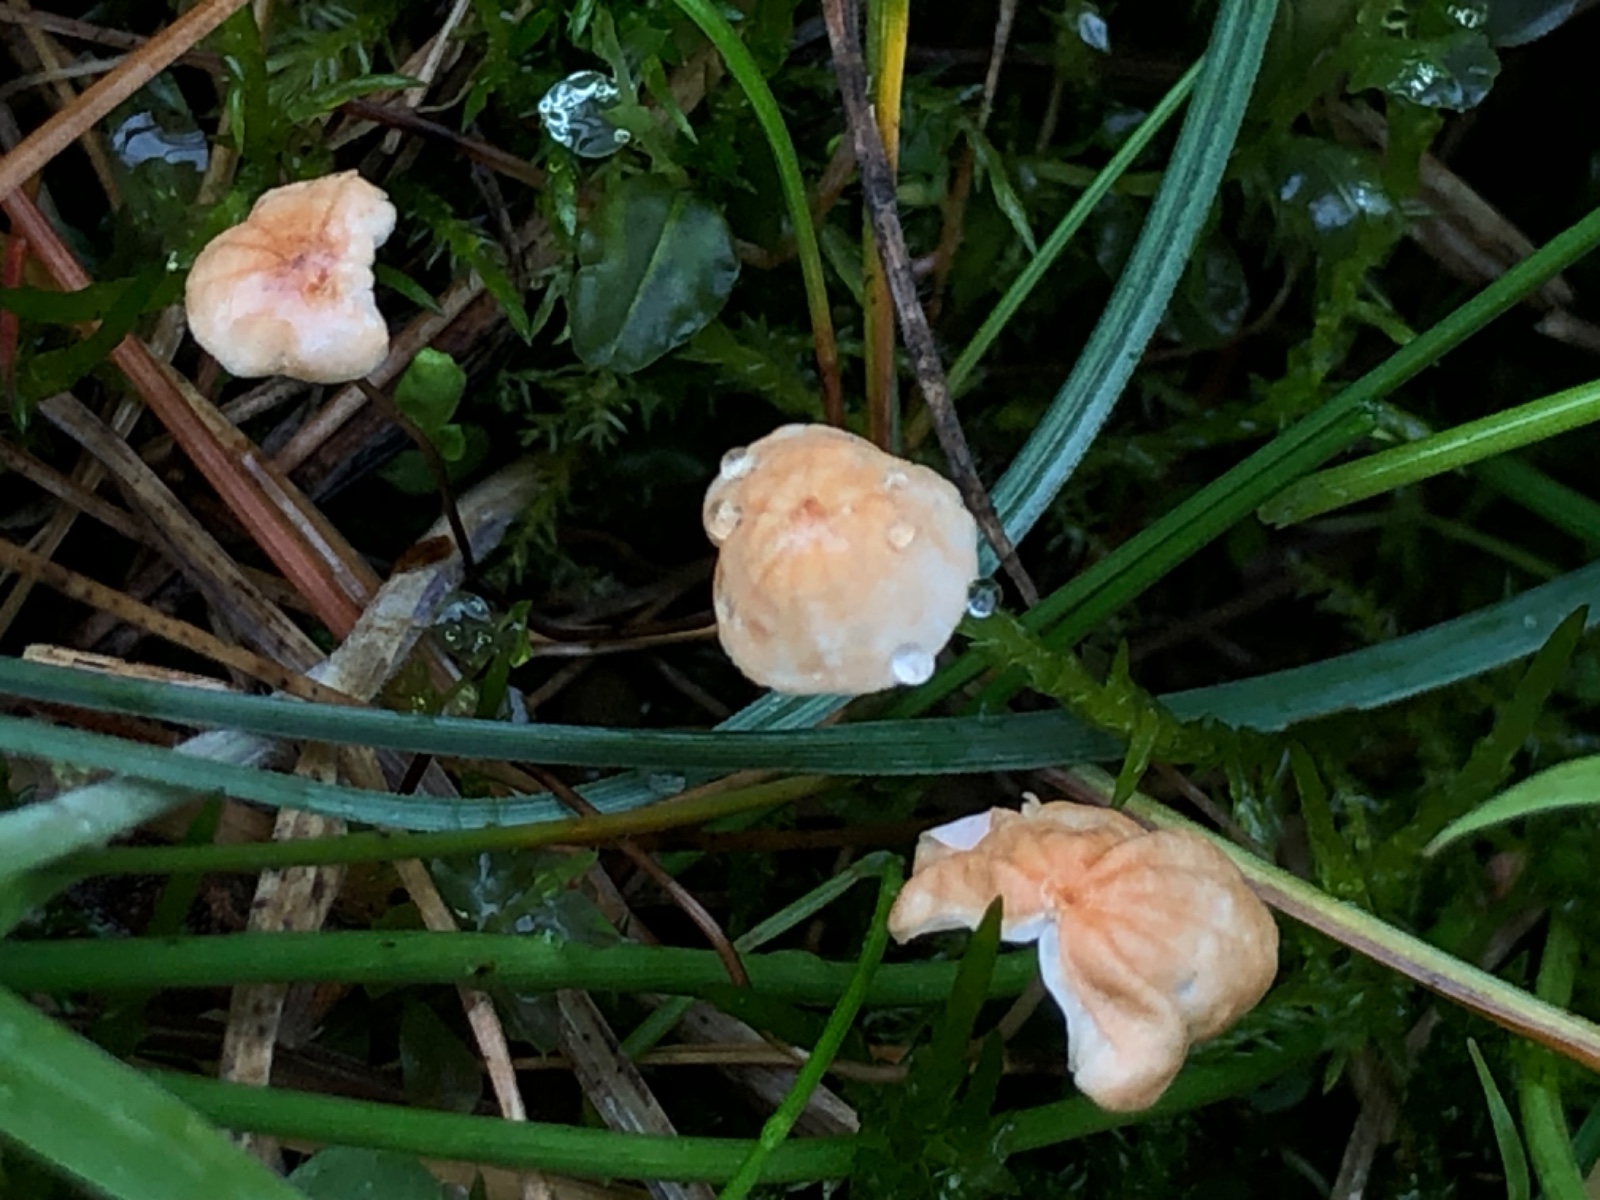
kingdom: Fungi
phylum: Basidiomycota
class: Agaricomycetes
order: Agaricales
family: Marasmiaceae
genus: Marasmius
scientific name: Marasmius curreyi
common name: teglrød bruskhat
